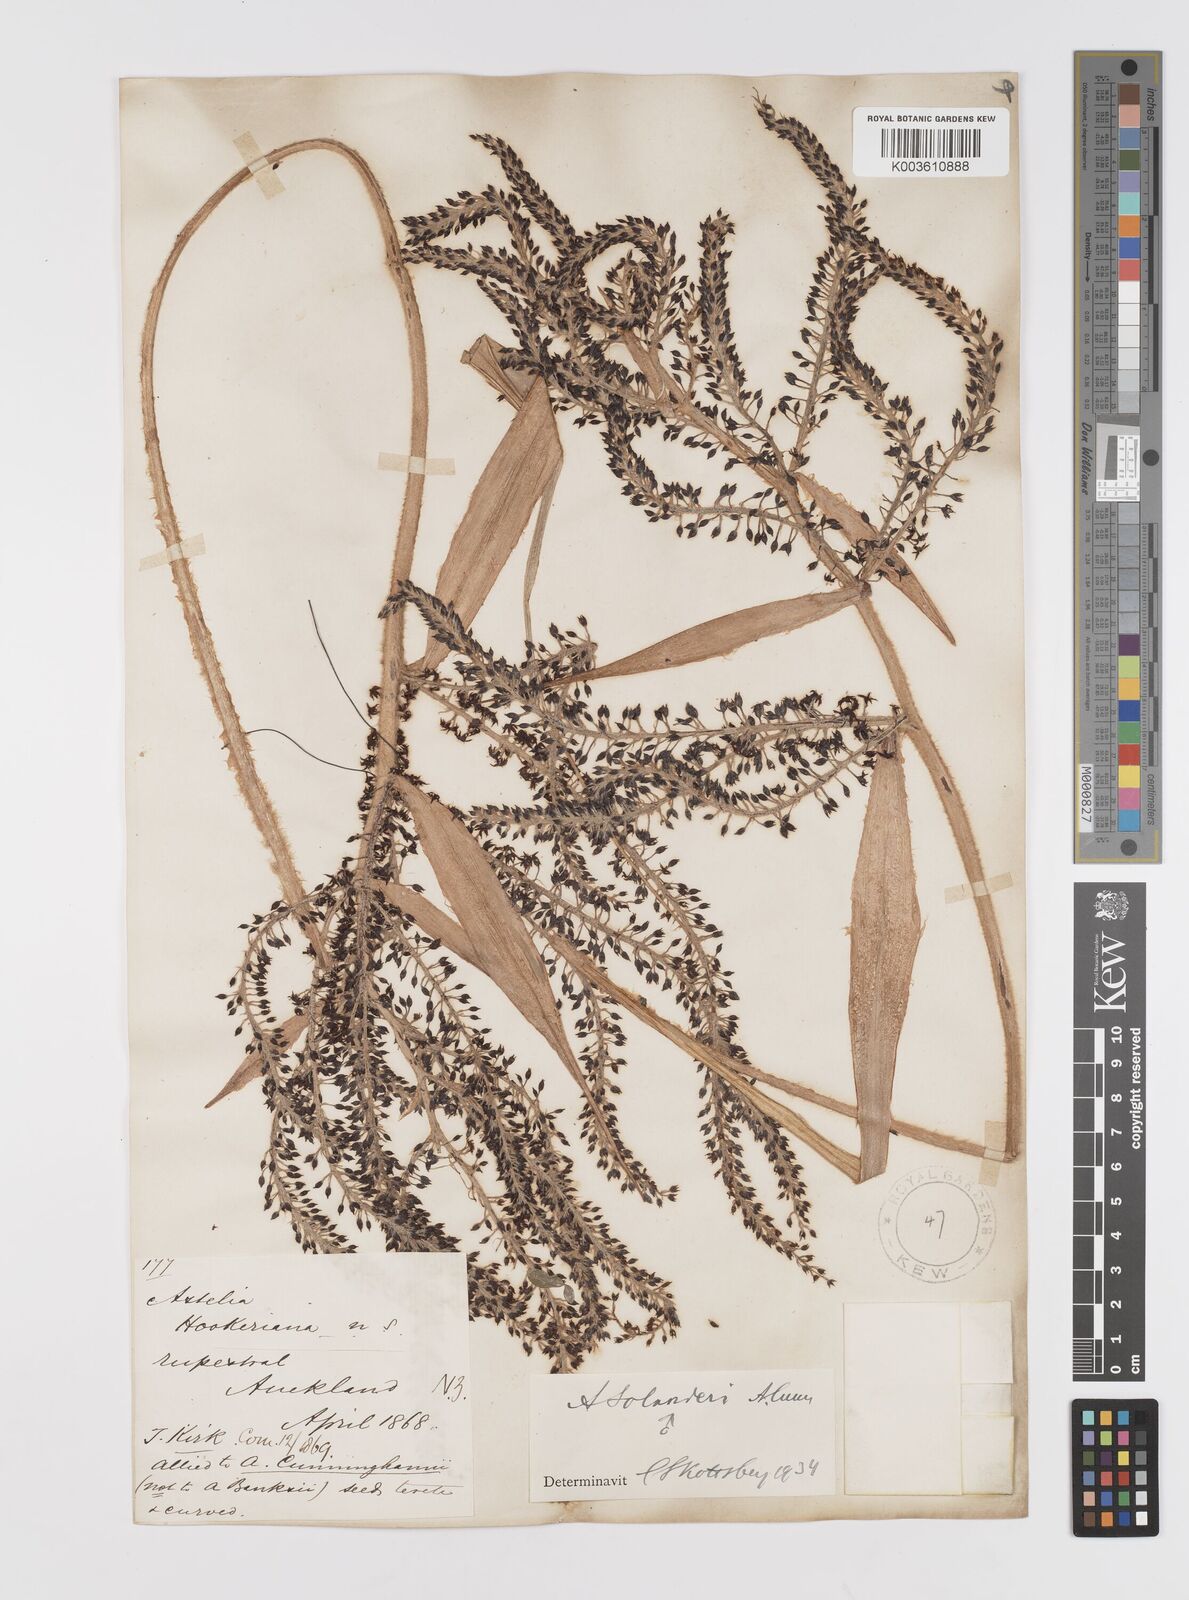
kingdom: Plantae
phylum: Tracheophyta
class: Liliopsida
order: Asparagales
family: Asteliaceae
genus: Astelia
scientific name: Astelia solandri
